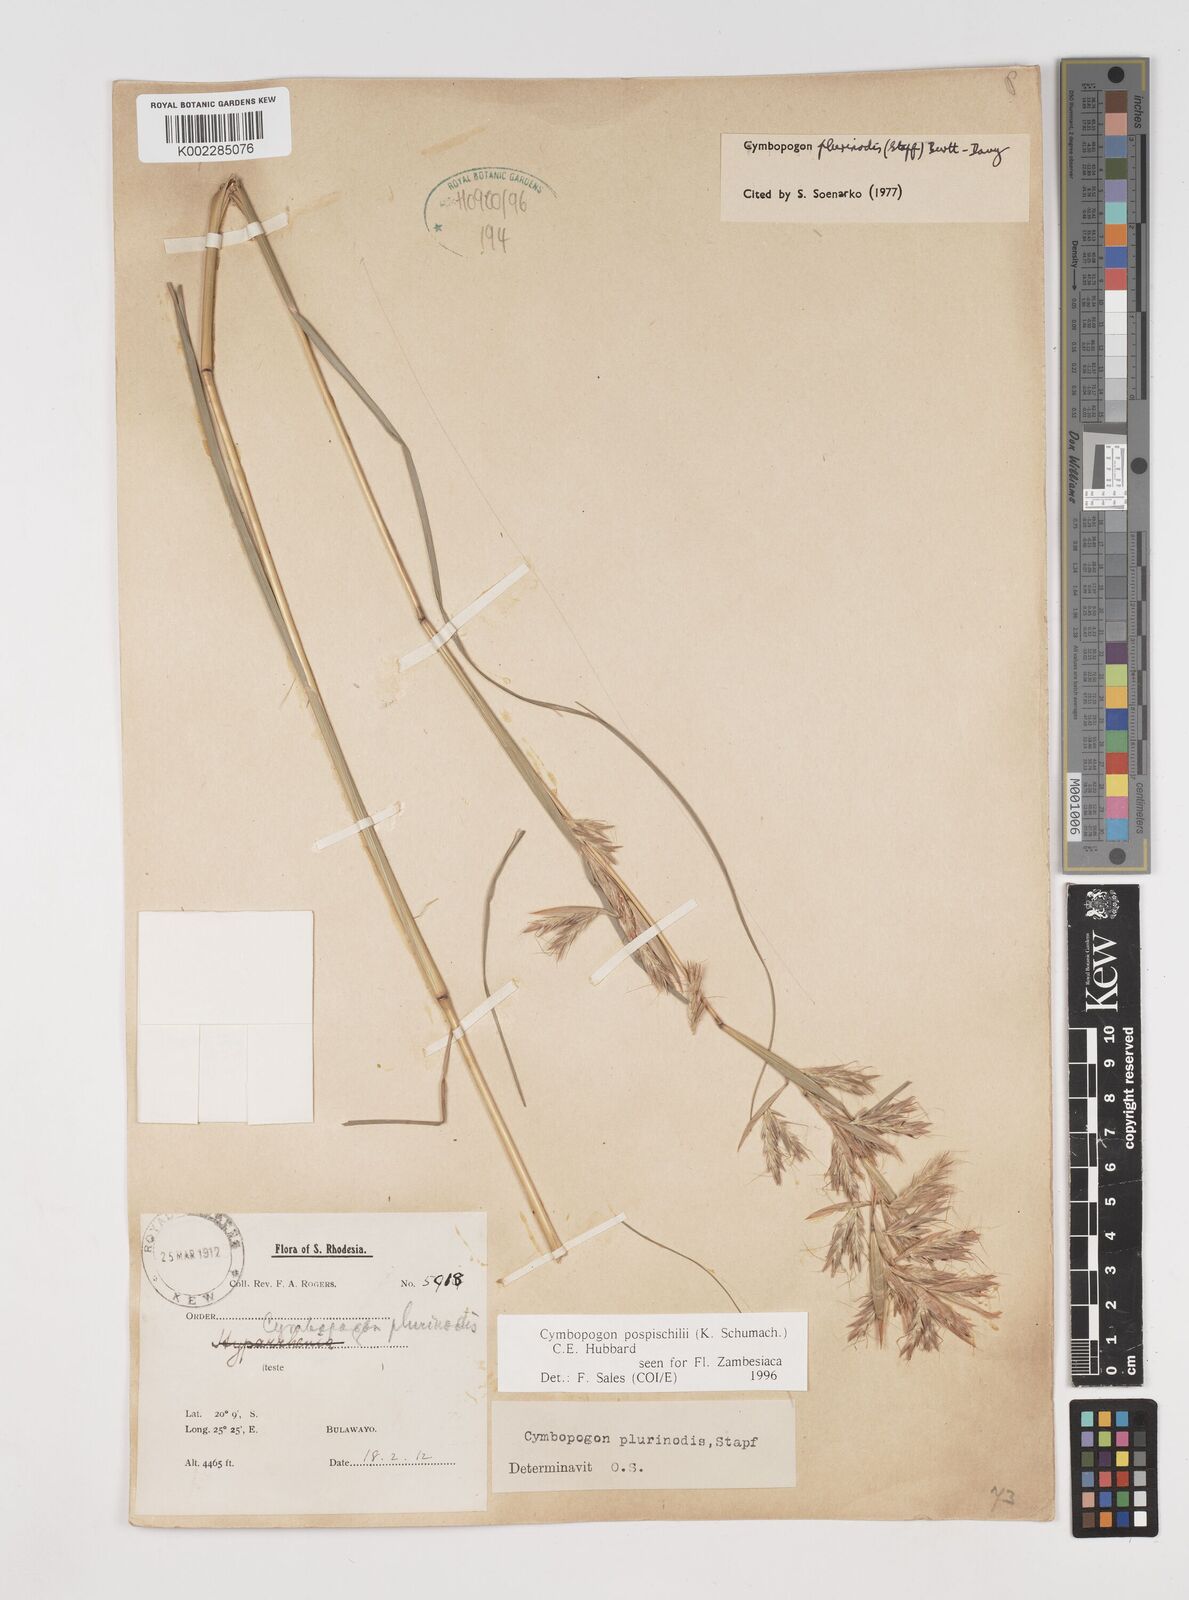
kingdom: Plantae
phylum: Tracheophyta
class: Liliopsida
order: Poales
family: Poaceae
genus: Cymbopogon
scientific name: Cymbopogon pospischilii
